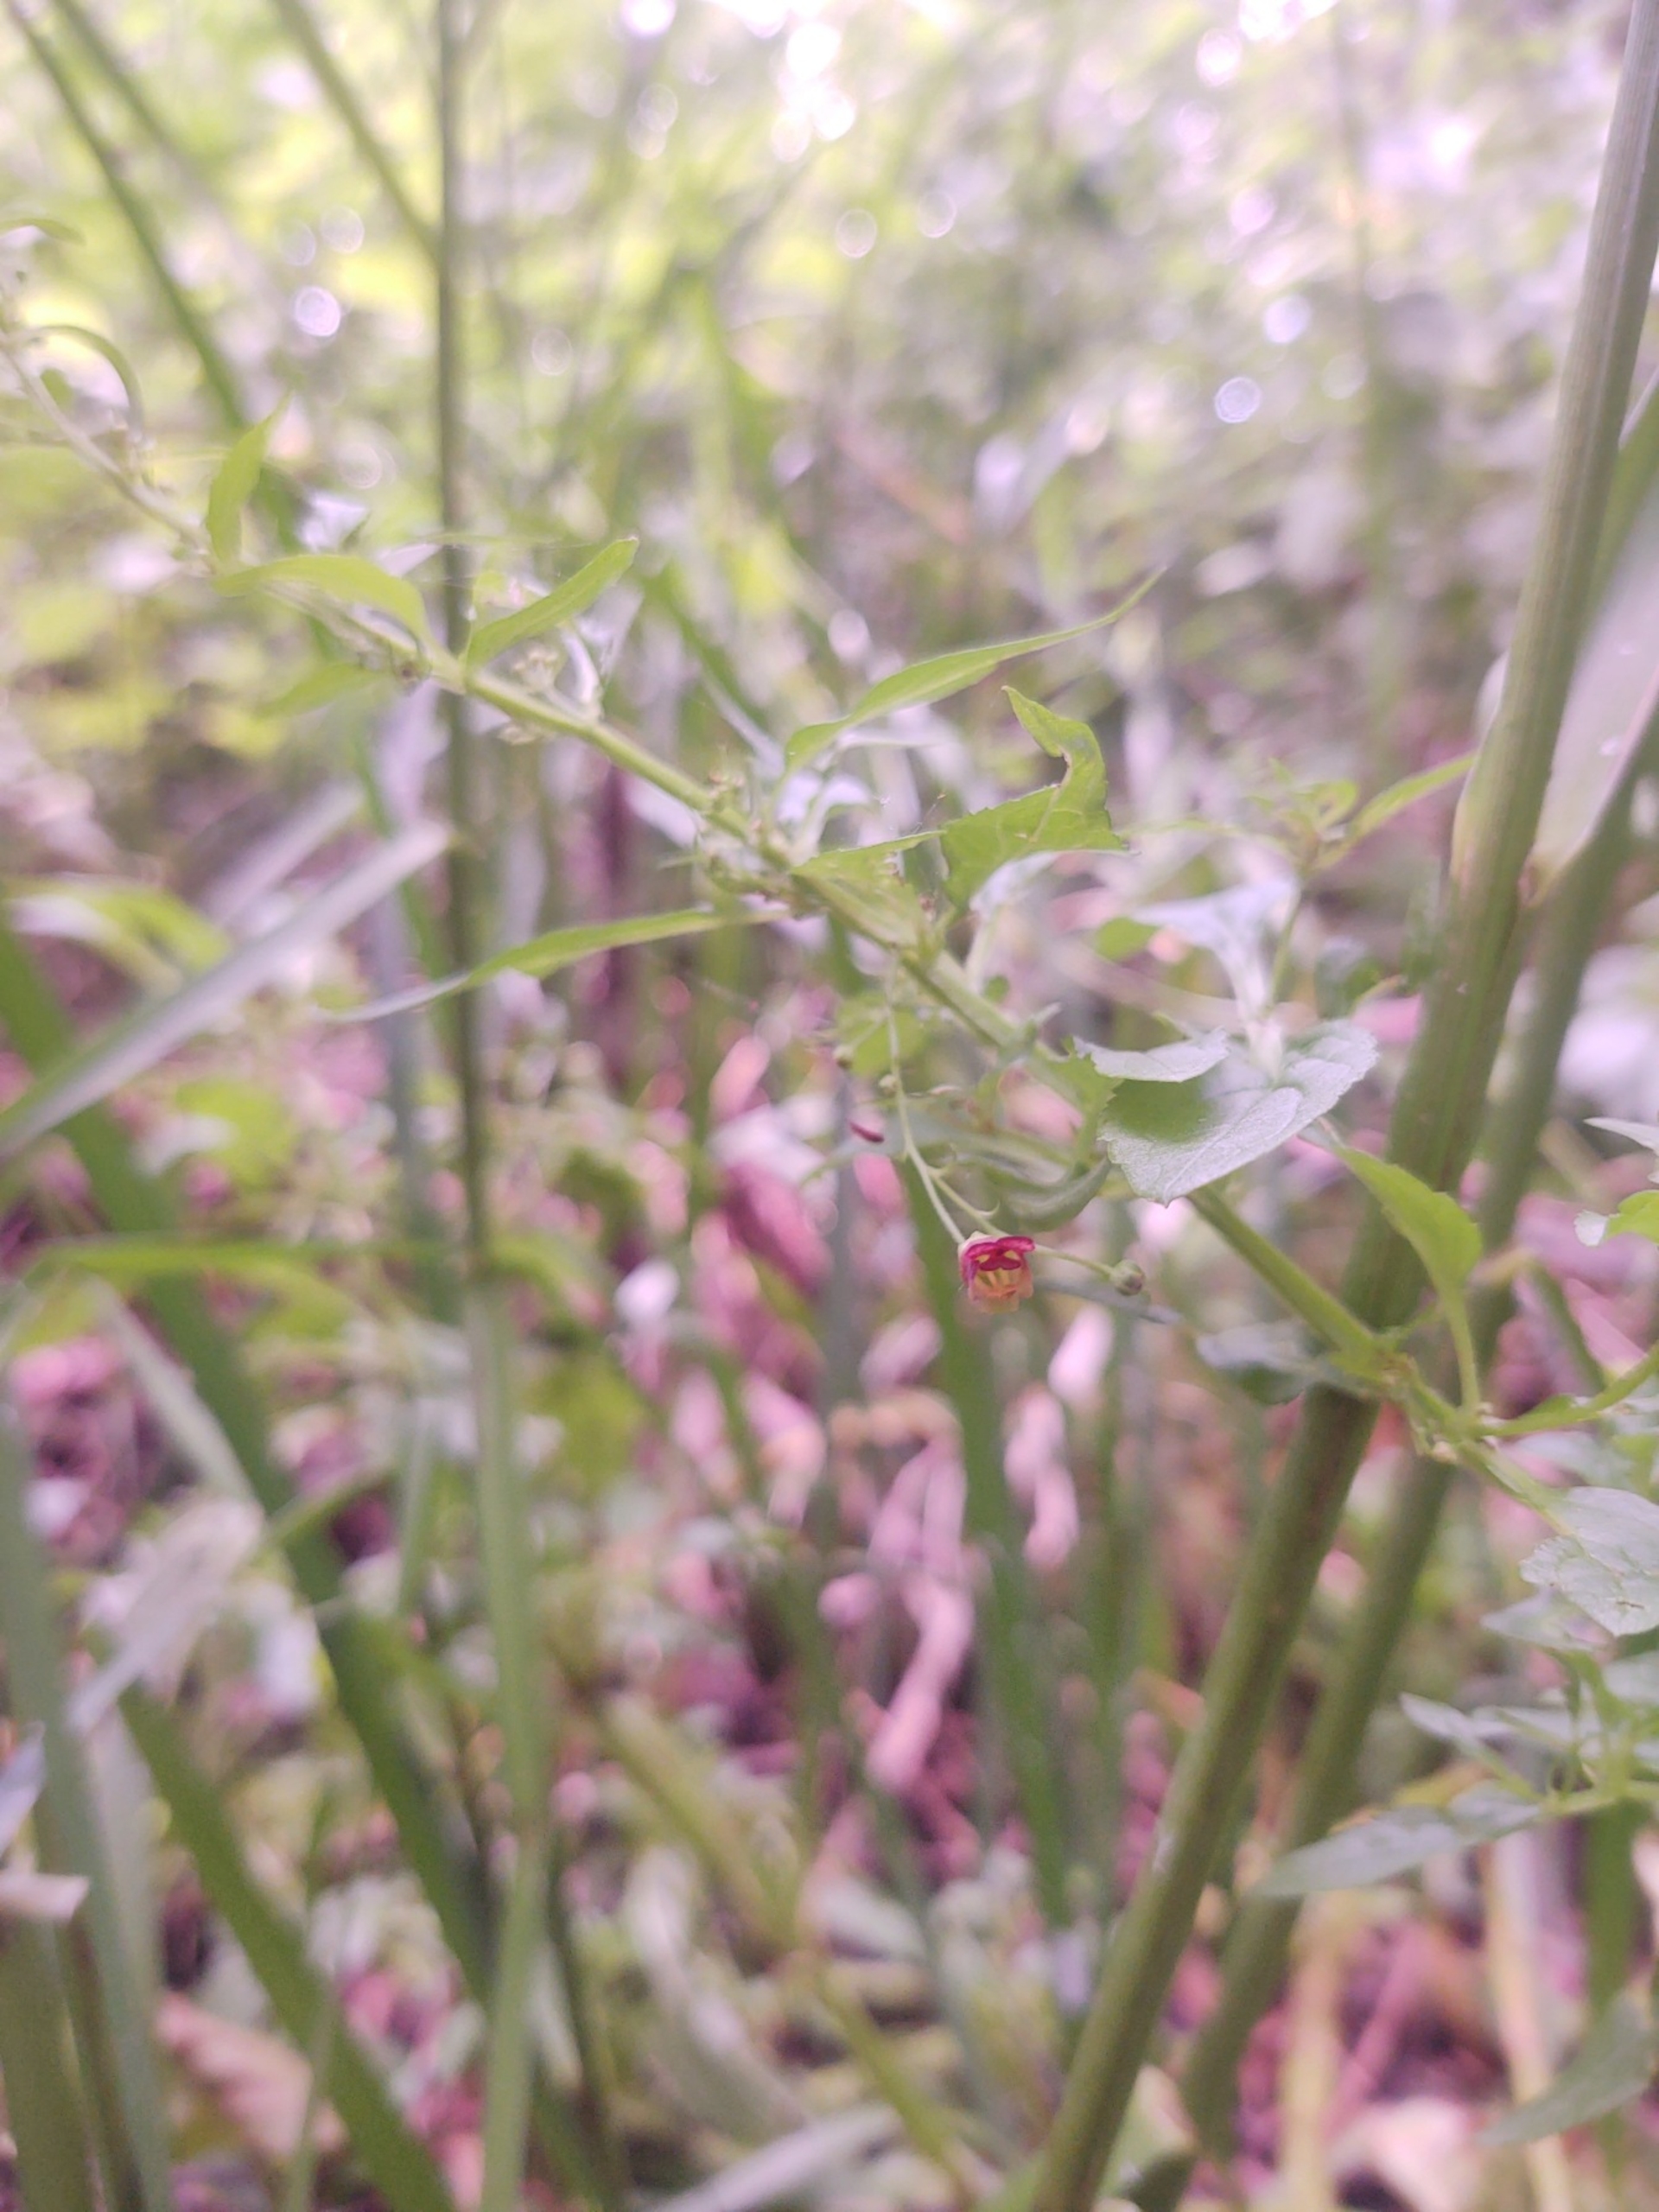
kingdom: Plantae
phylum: Tracheophyta
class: Magnoliopsida
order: Lamiales
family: Scrophulariaceae
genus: Scrophularia
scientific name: Scrophularia umbrosa
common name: Vand-brunrod
